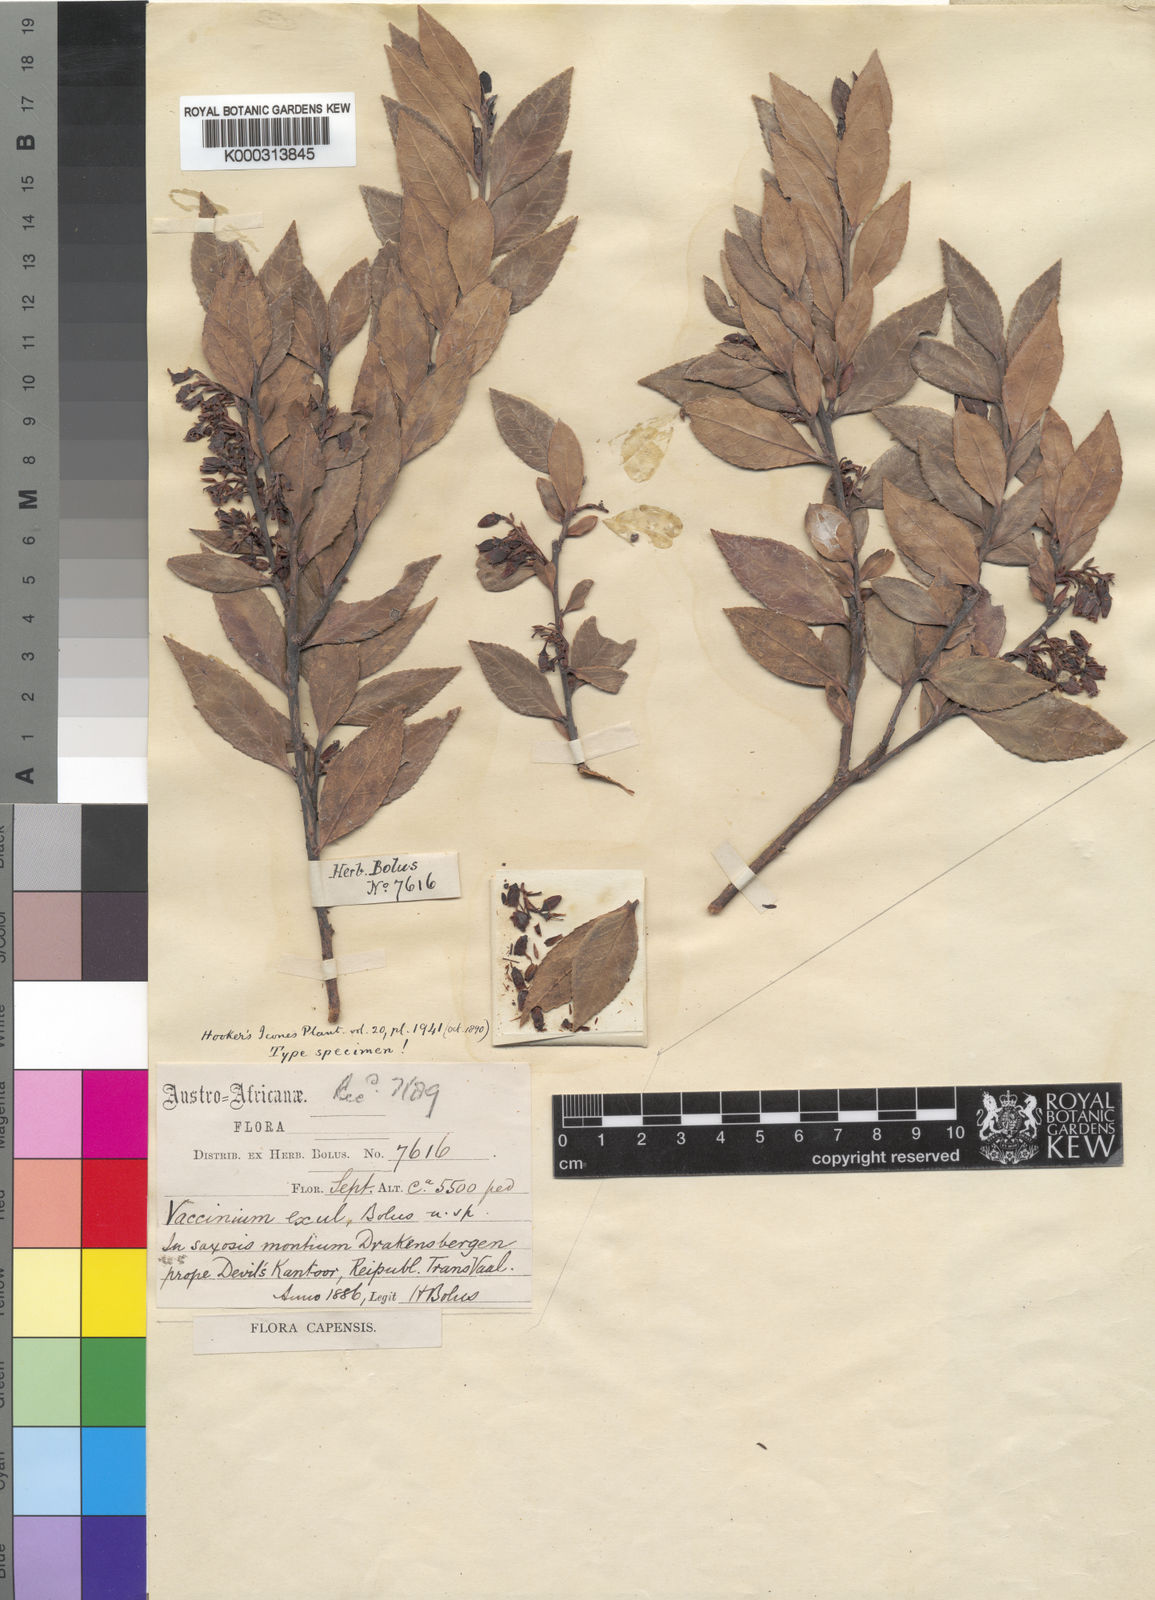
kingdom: Plantae
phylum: Tracheophyta
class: Magnoliopsida
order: Ericales
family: Ericaceae
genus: Vaccinium
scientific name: Vaccinium exul
